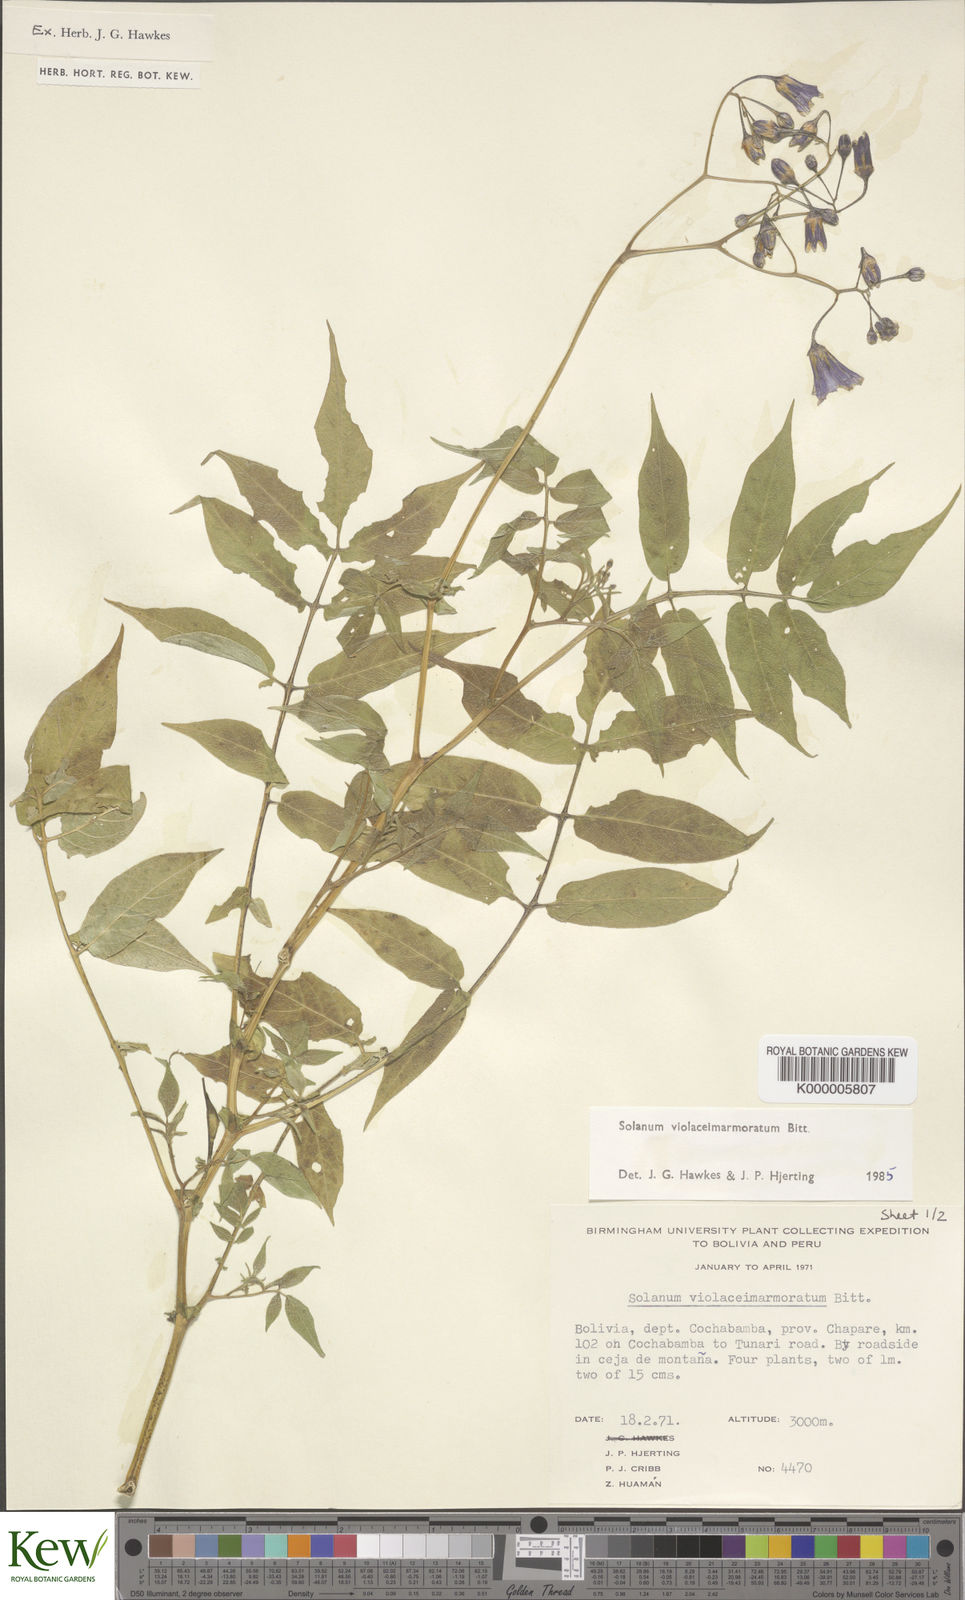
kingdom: Plantae
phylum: Tracheophyta
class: Magnoliopsida
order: Solanales
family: Solanaceae
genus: Solanum
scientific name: Solanum violaceimarmoratum
